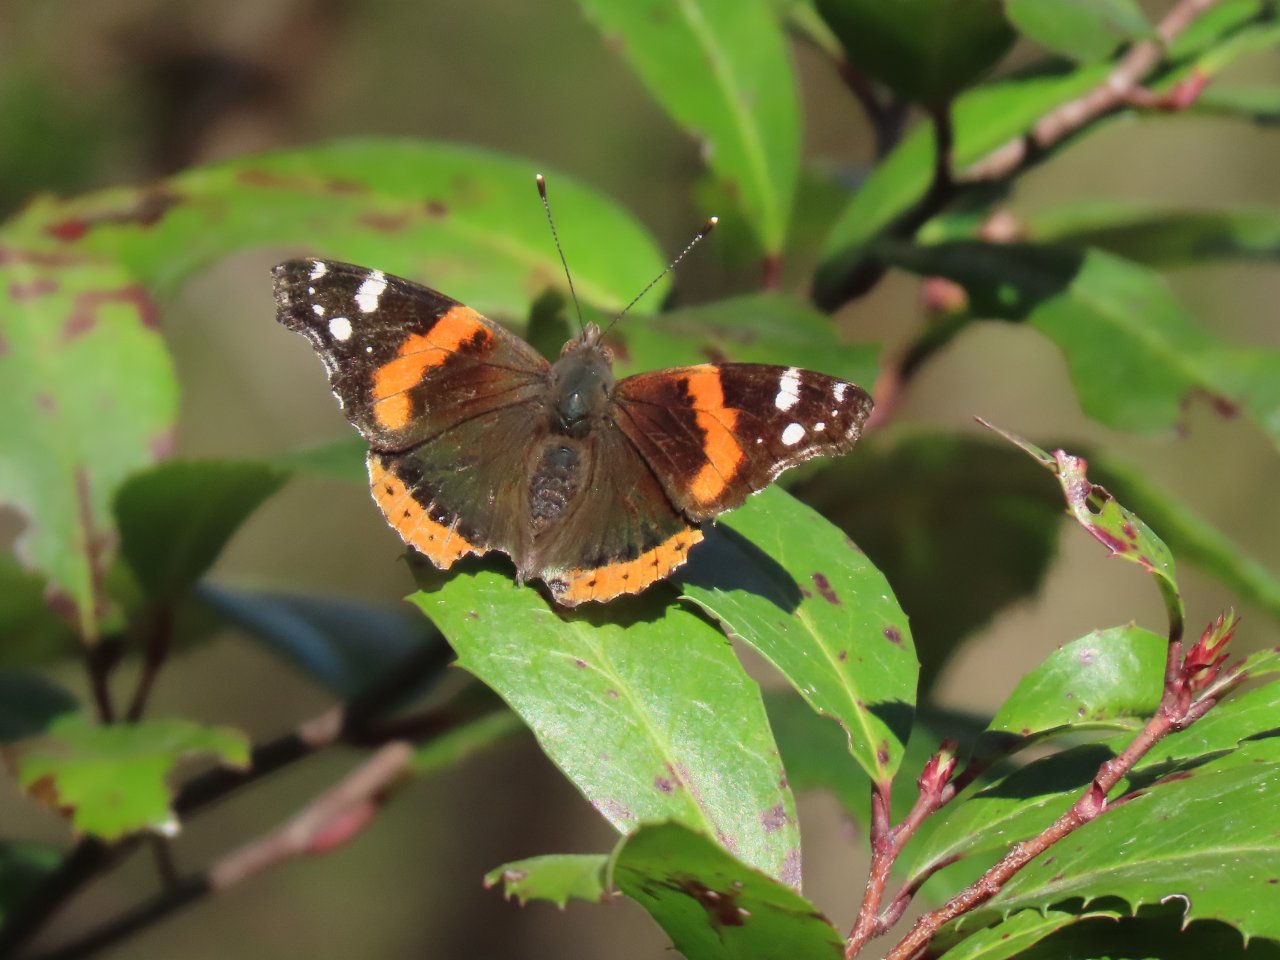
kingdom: Animalia
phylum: Arthropoda
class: Insecta
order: Lepidoptera
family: Nymphalidae
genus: Vanessa
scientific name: Vanessa atalanta
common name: Red Admiral
